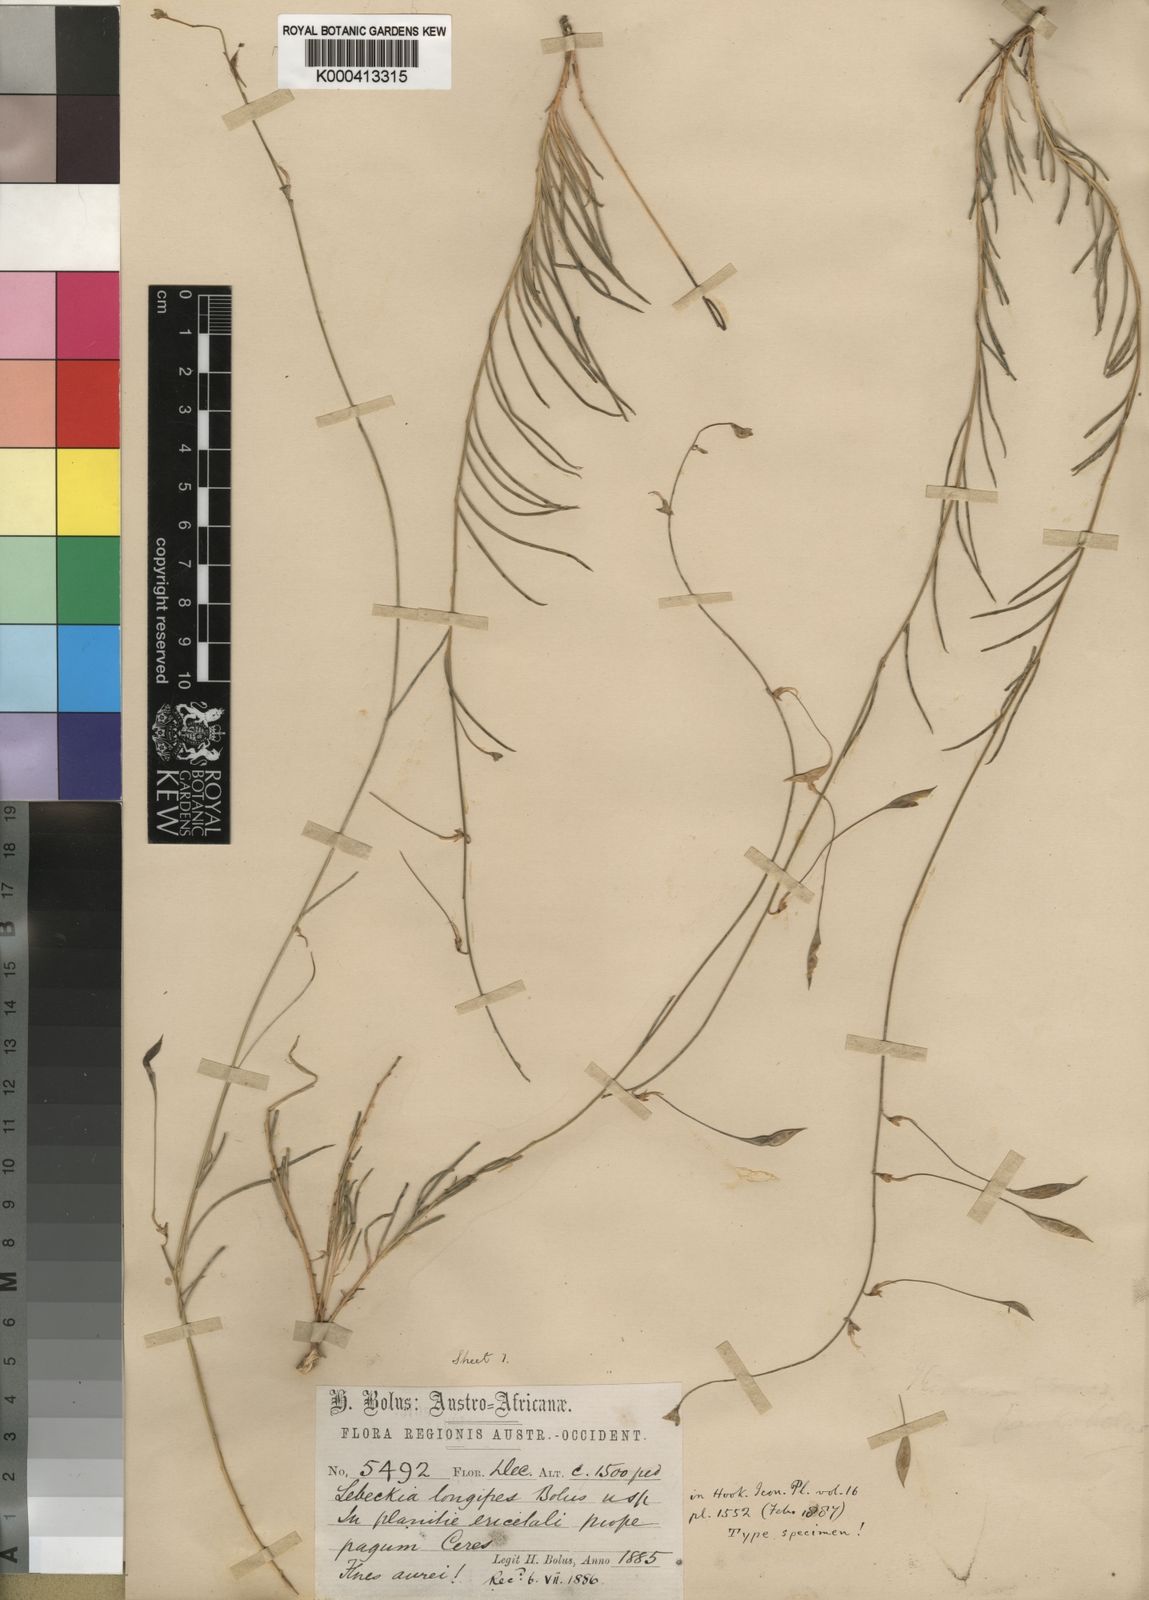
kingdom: Plantae
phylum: Tracheophyta
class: Magnoliopsida
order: Fabales
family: Fabaceae
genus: Lebeckia
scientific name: Lebeckia longipes
